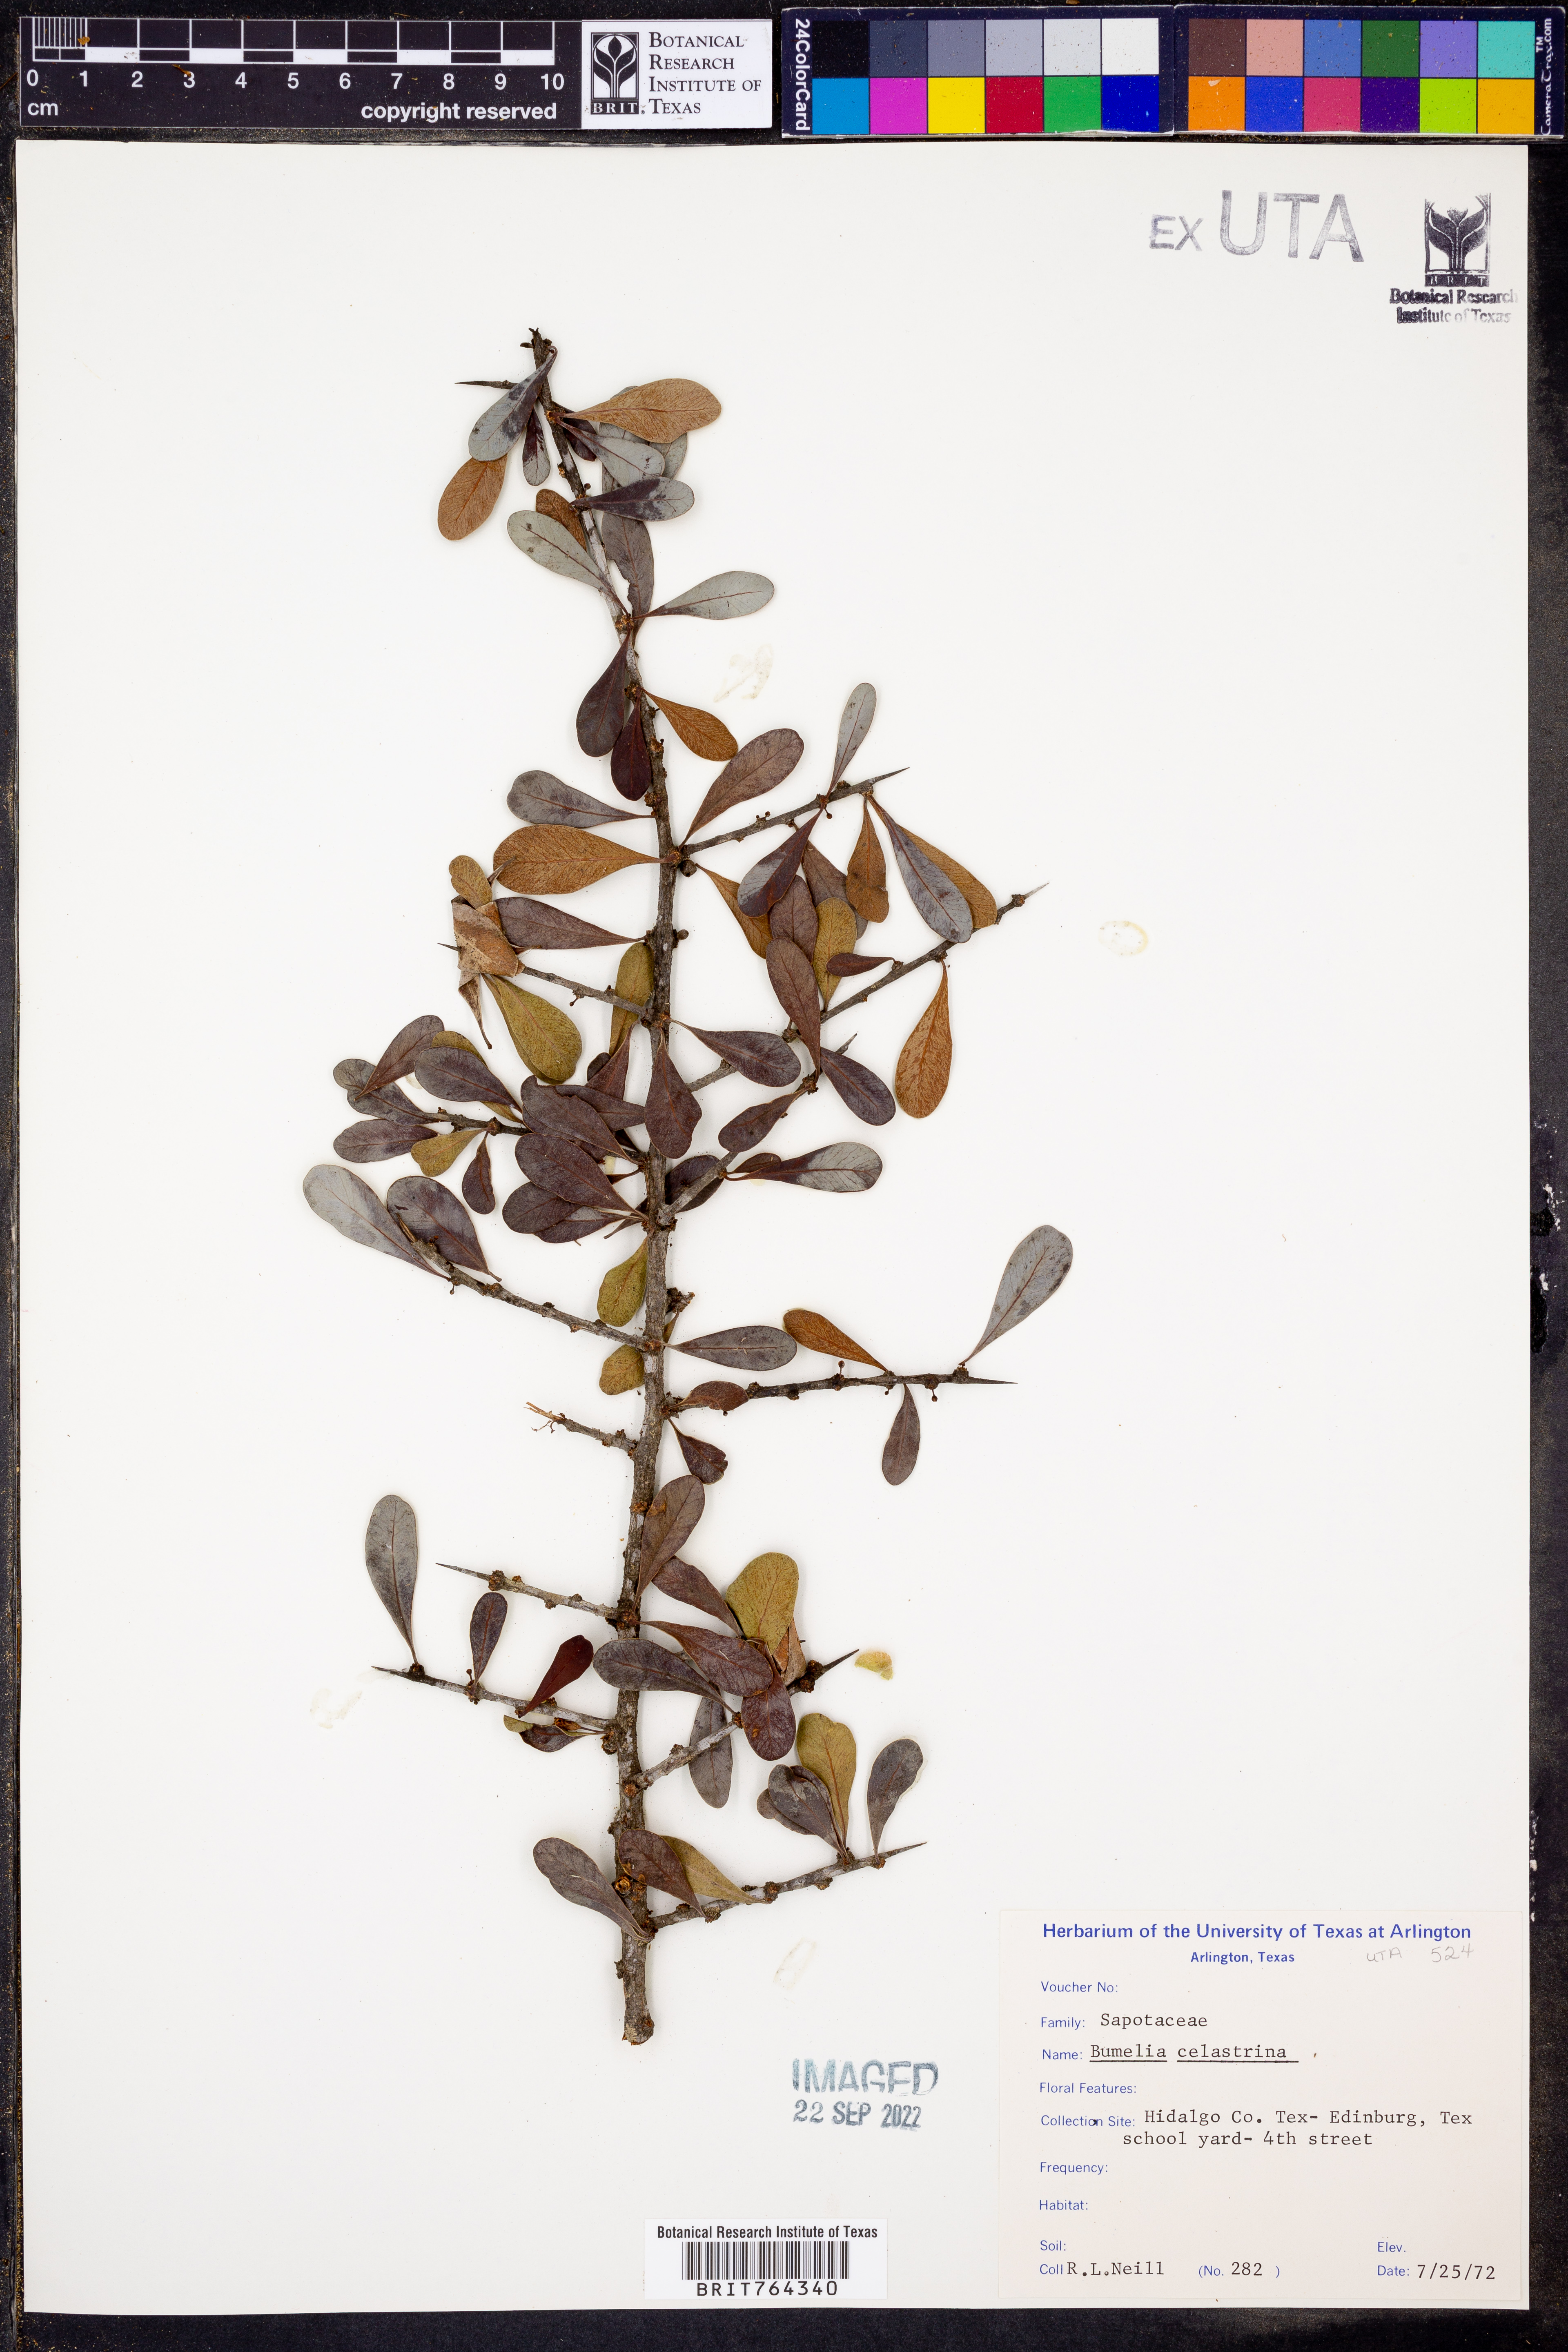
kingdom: Plantae
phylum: Tracheophyta
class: Magnoliopsida
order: Ericales
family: Sapotaceae
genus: Sideroxylon
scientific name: Sideroxylon celastrinum
